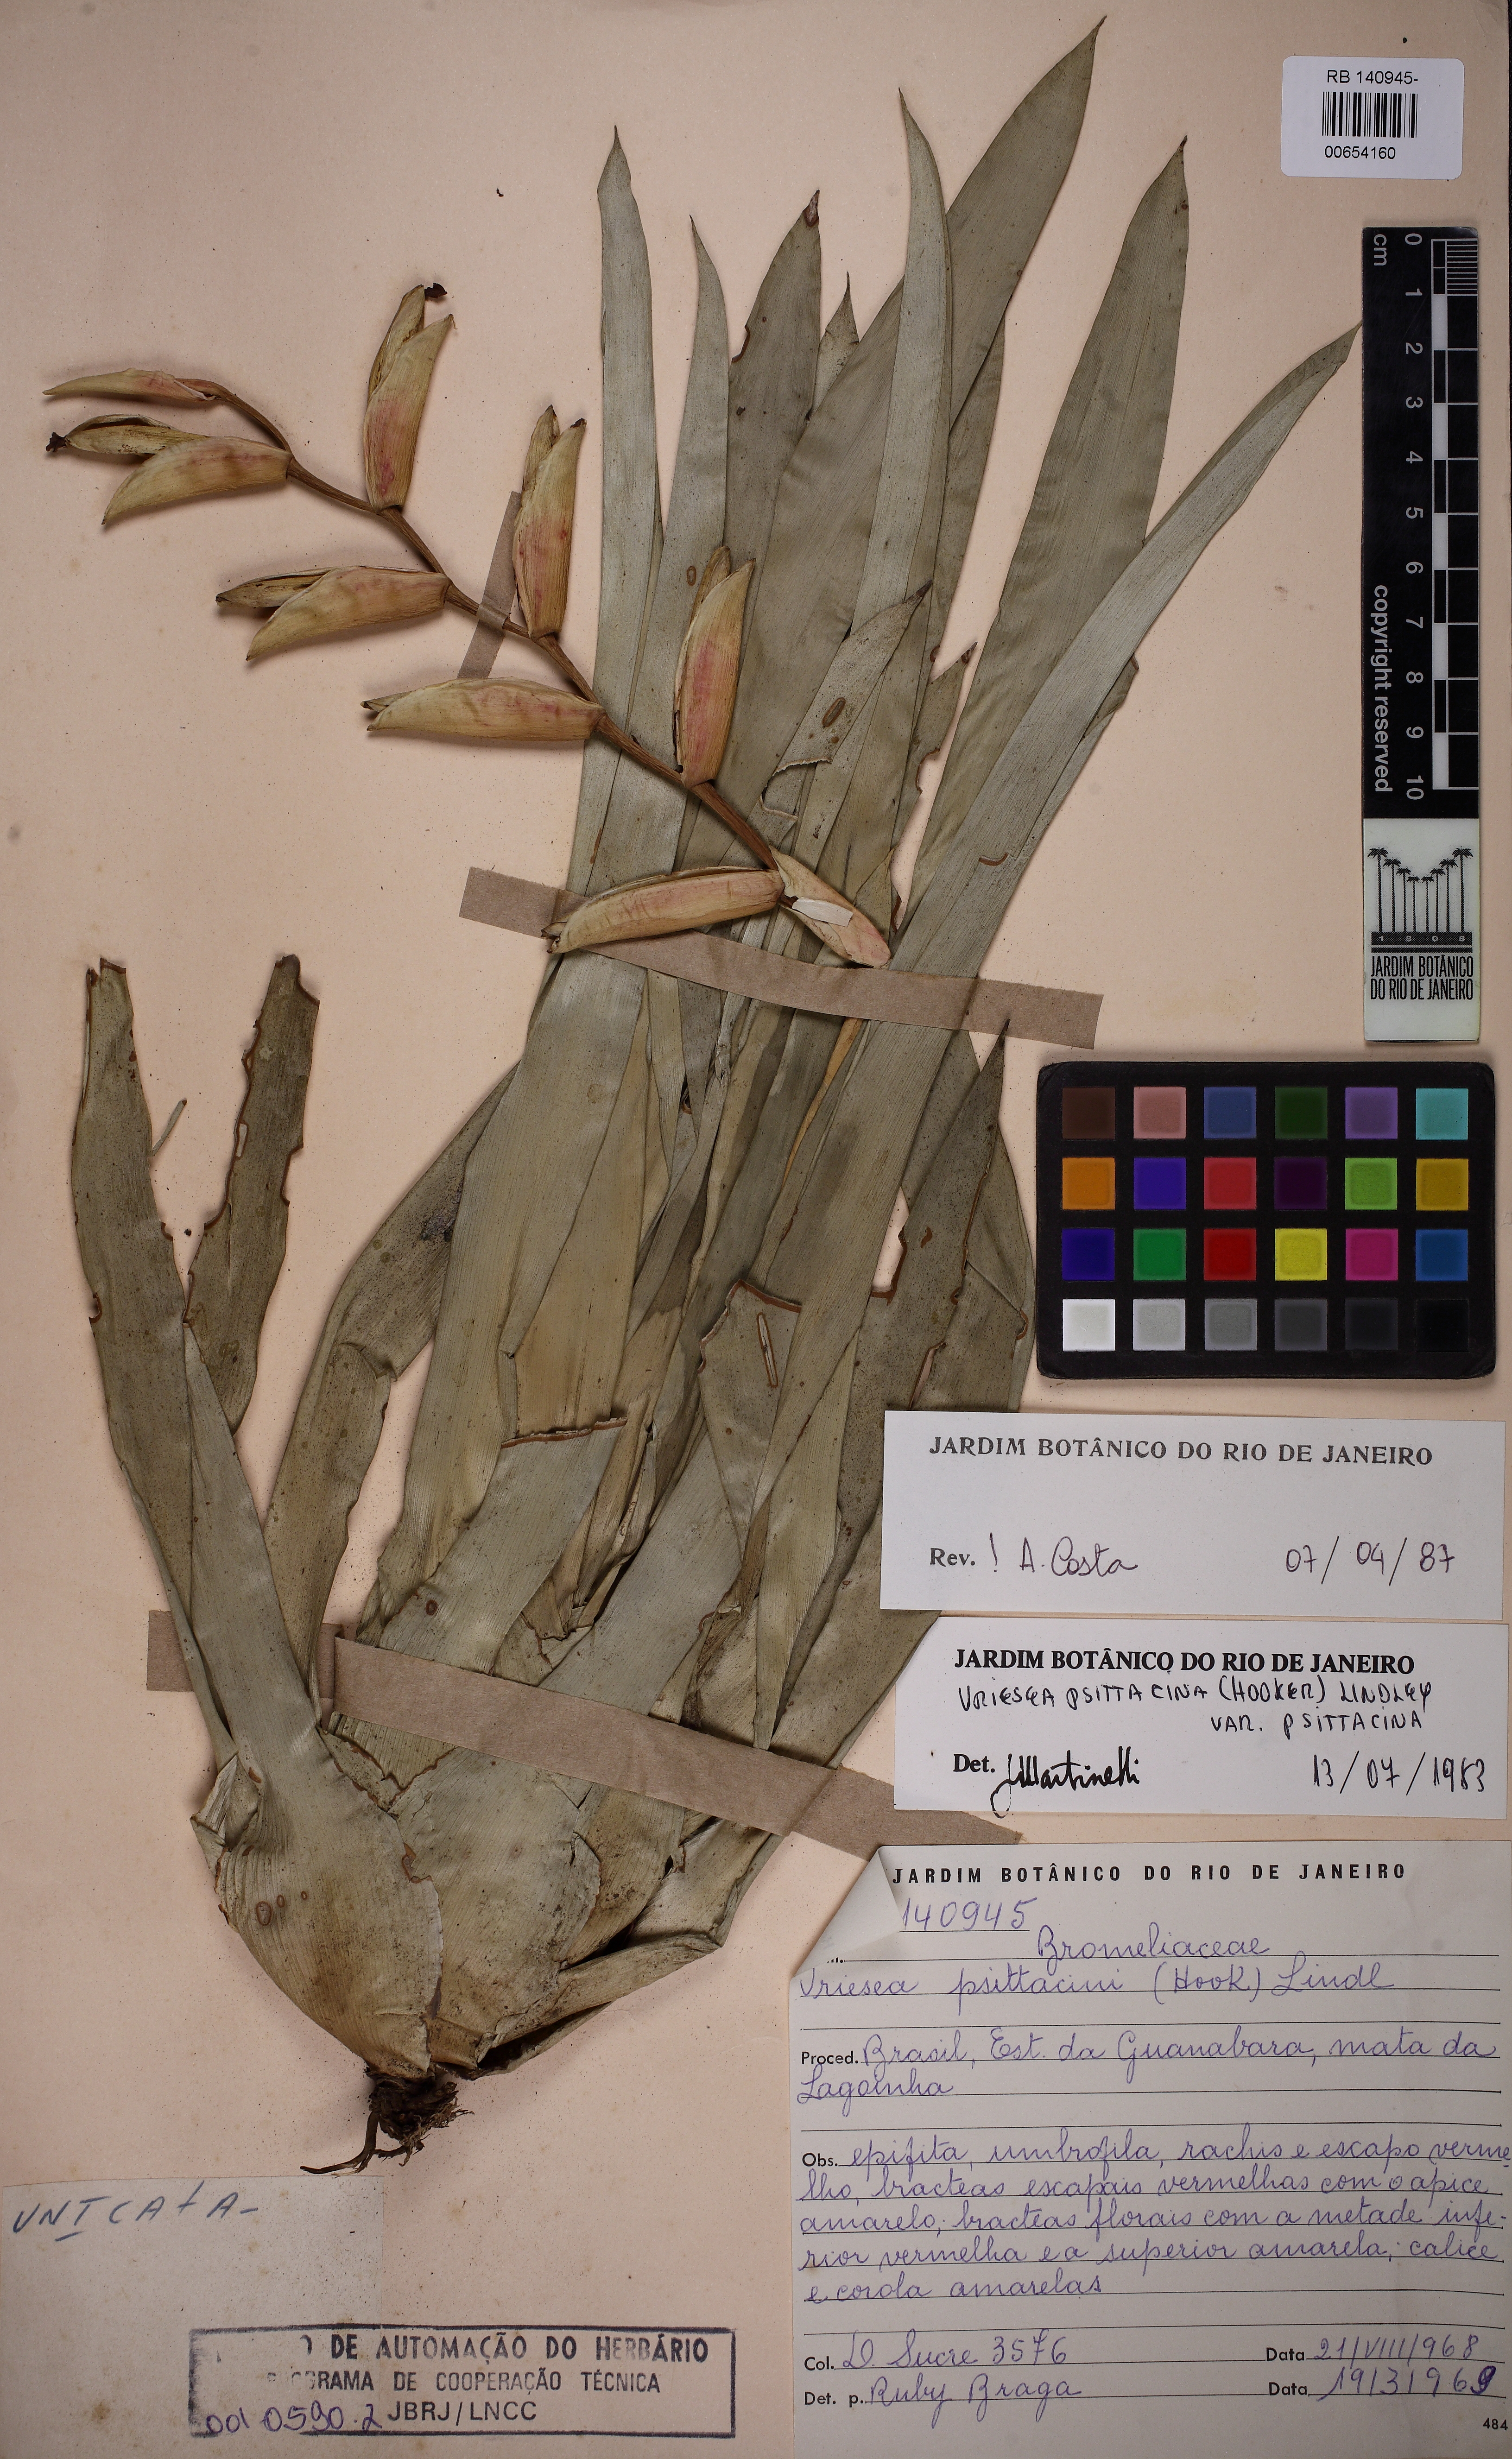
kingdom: Plantae
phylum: Tracheophyta
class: Liliopsida
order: Poales
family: Bromeliaceae
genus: Vriesea
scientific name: Vriesea psittacina
